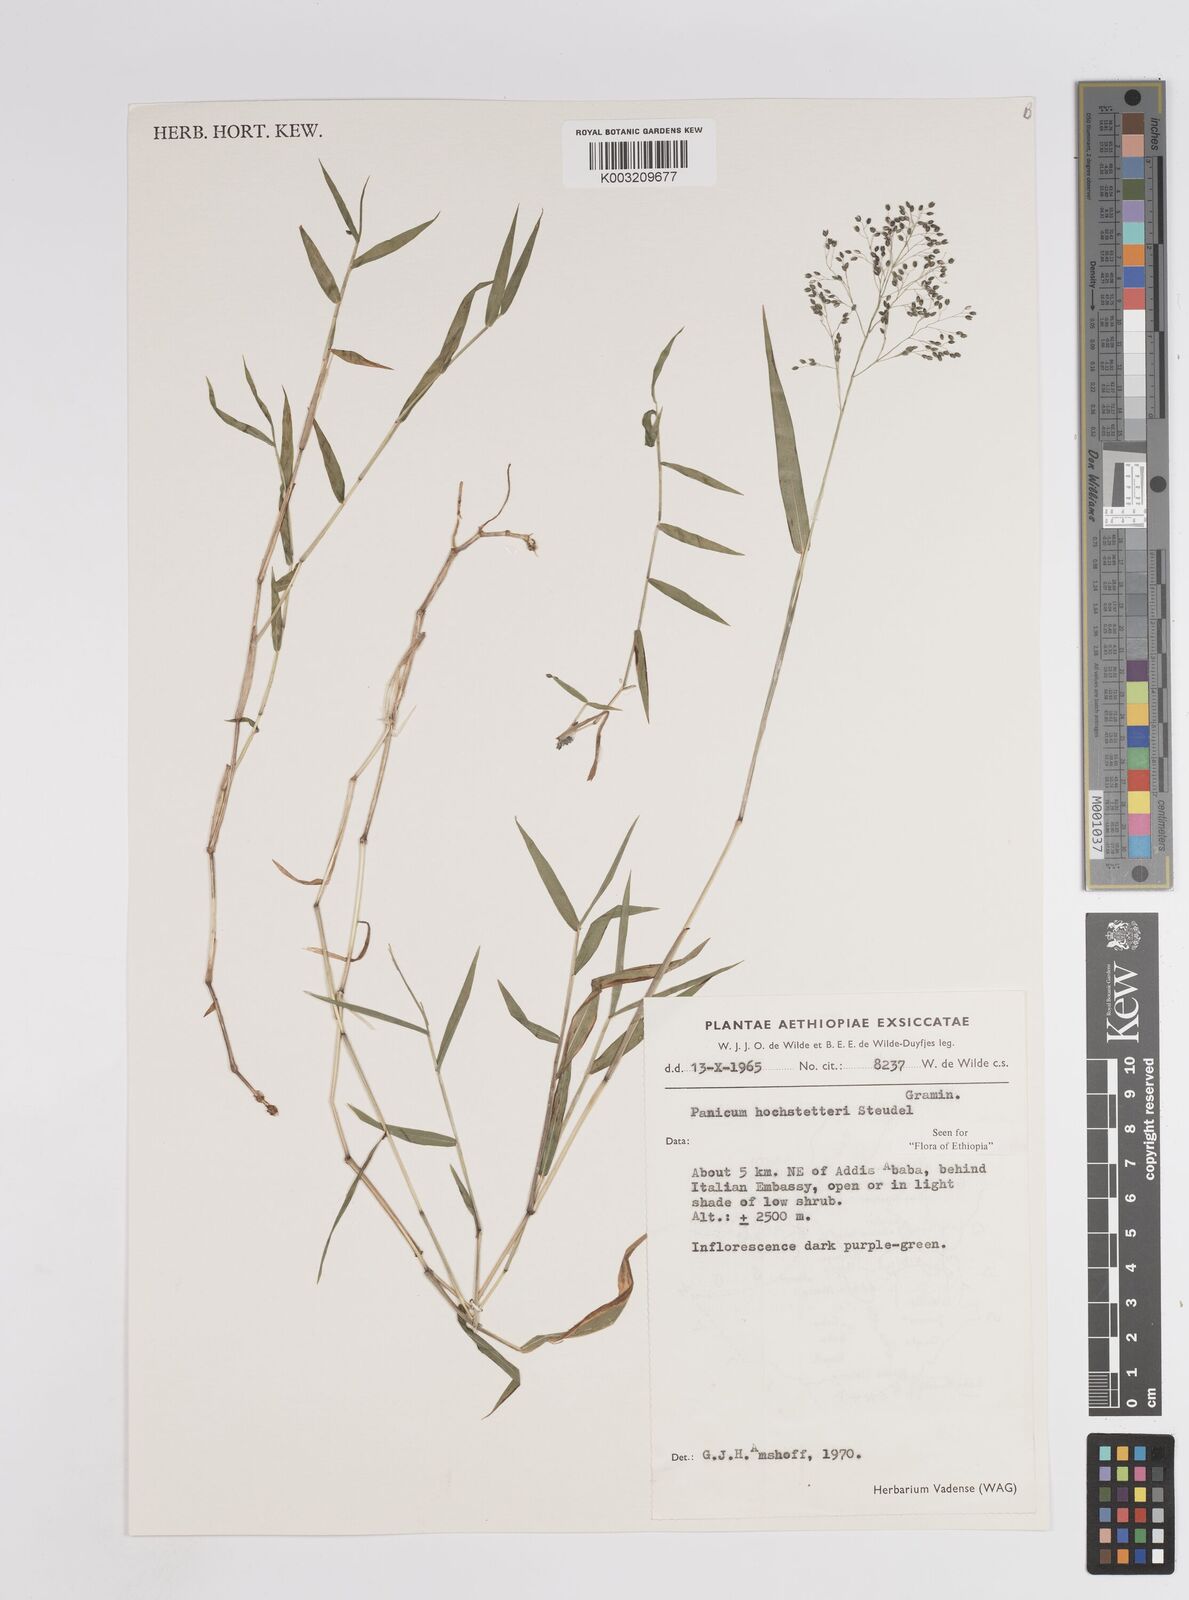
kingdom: Plantae
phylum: Tracheophyta
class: Liliopsida
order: Poales
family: Poaceae
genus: Panicum
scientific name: Panicum hochstetteri
